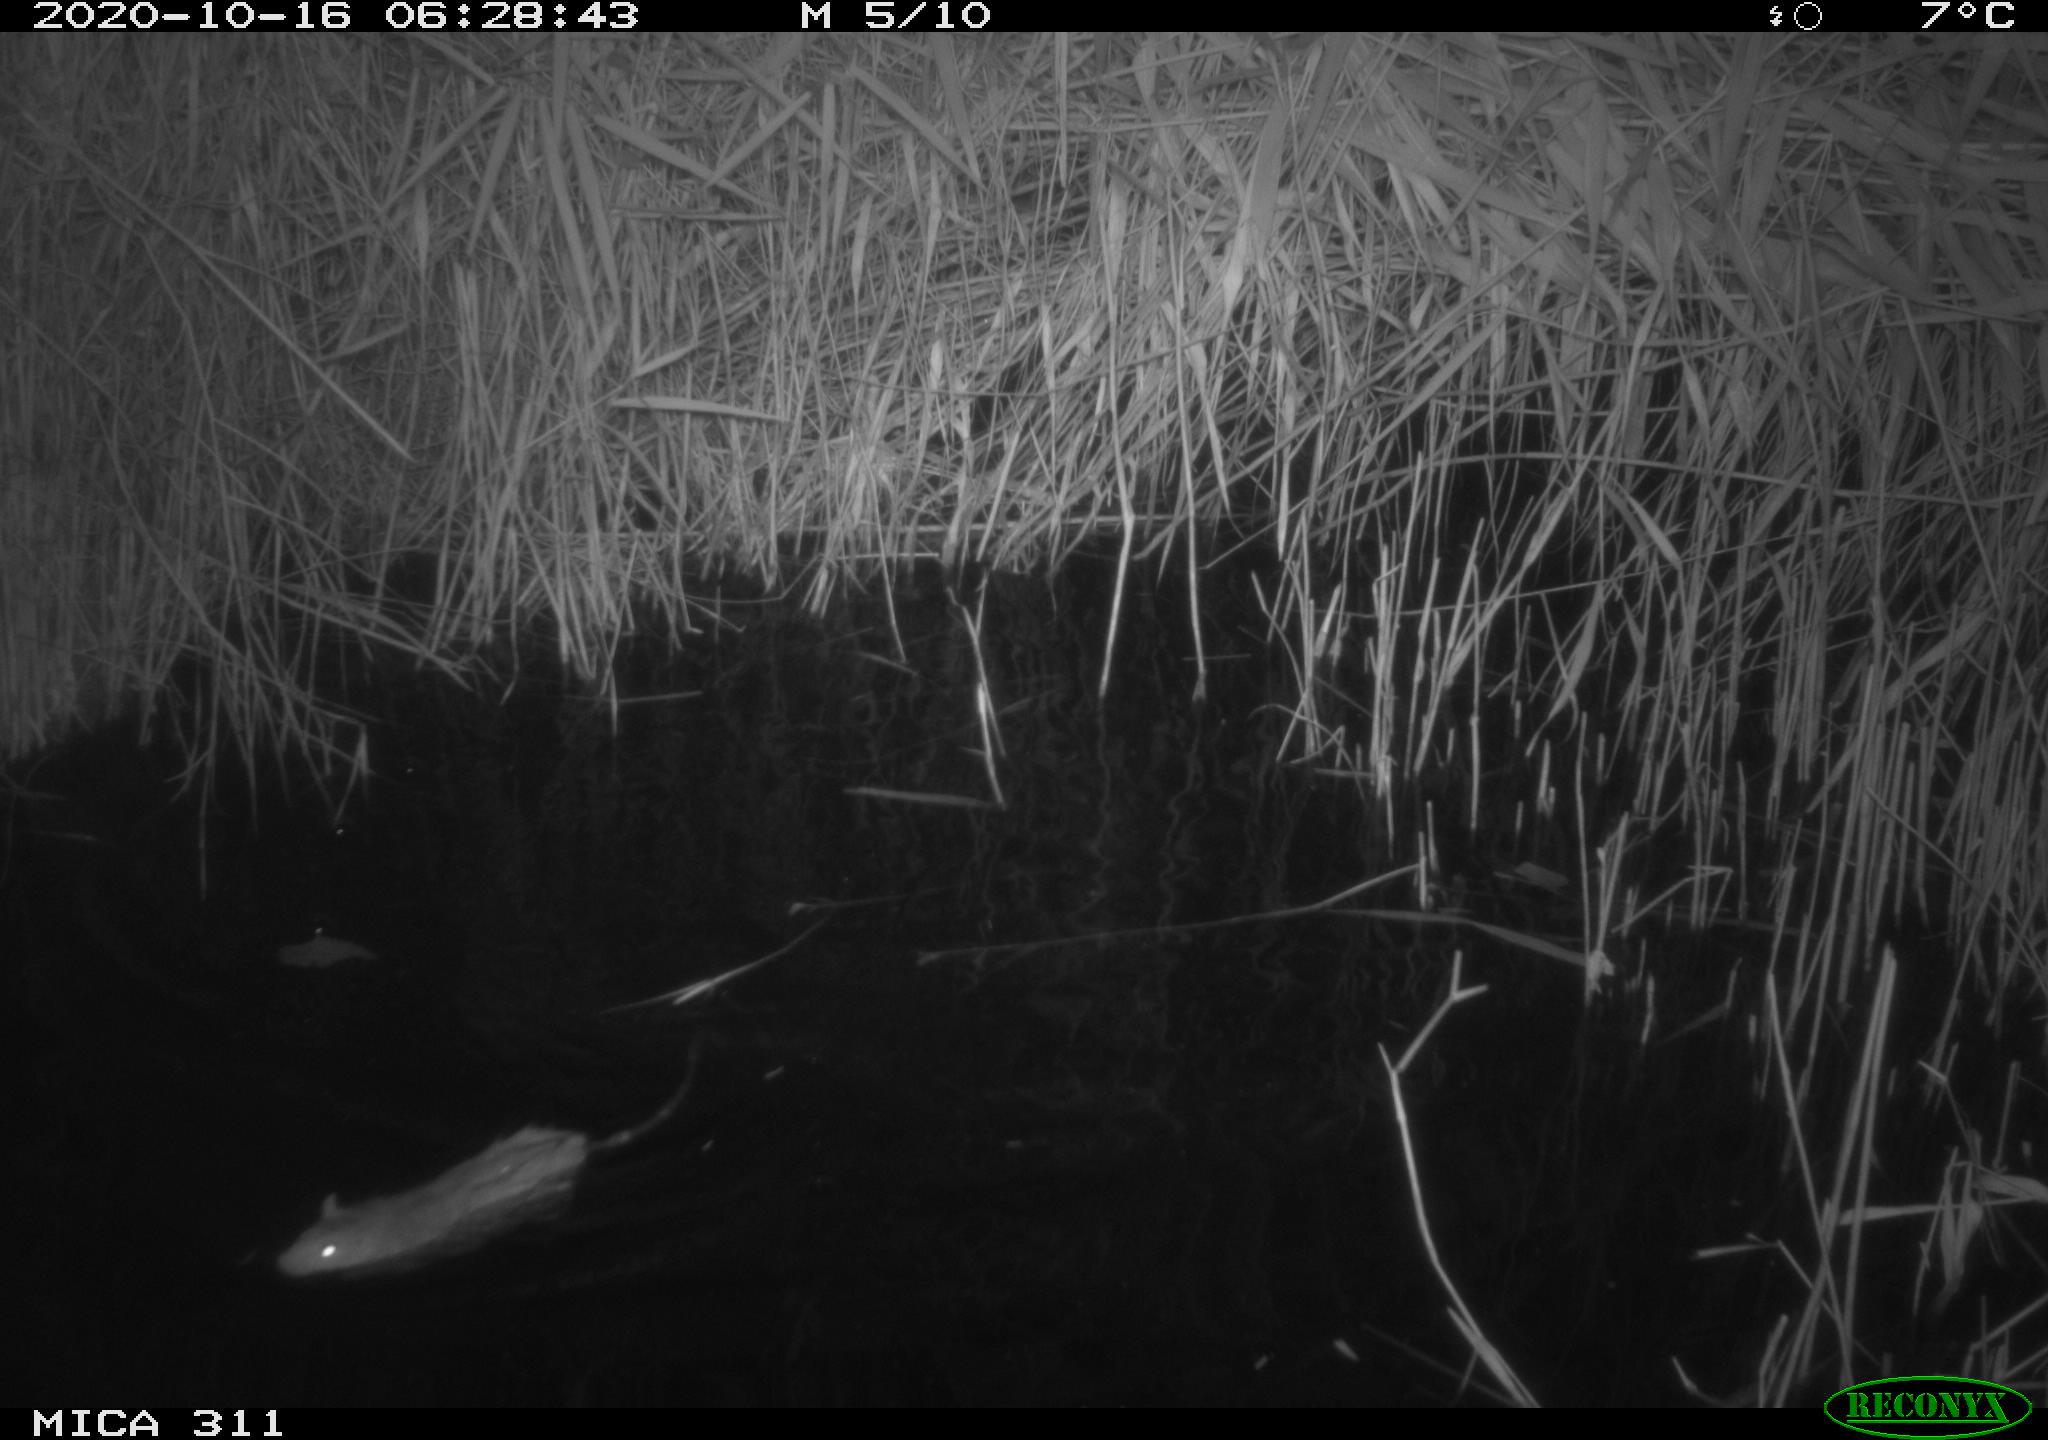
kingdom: Animalia
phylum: Chordata
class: Mammalia
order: Rodentia
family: Muridae
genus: Rattus
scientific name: Rattus norvegicus
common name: Brown rat
